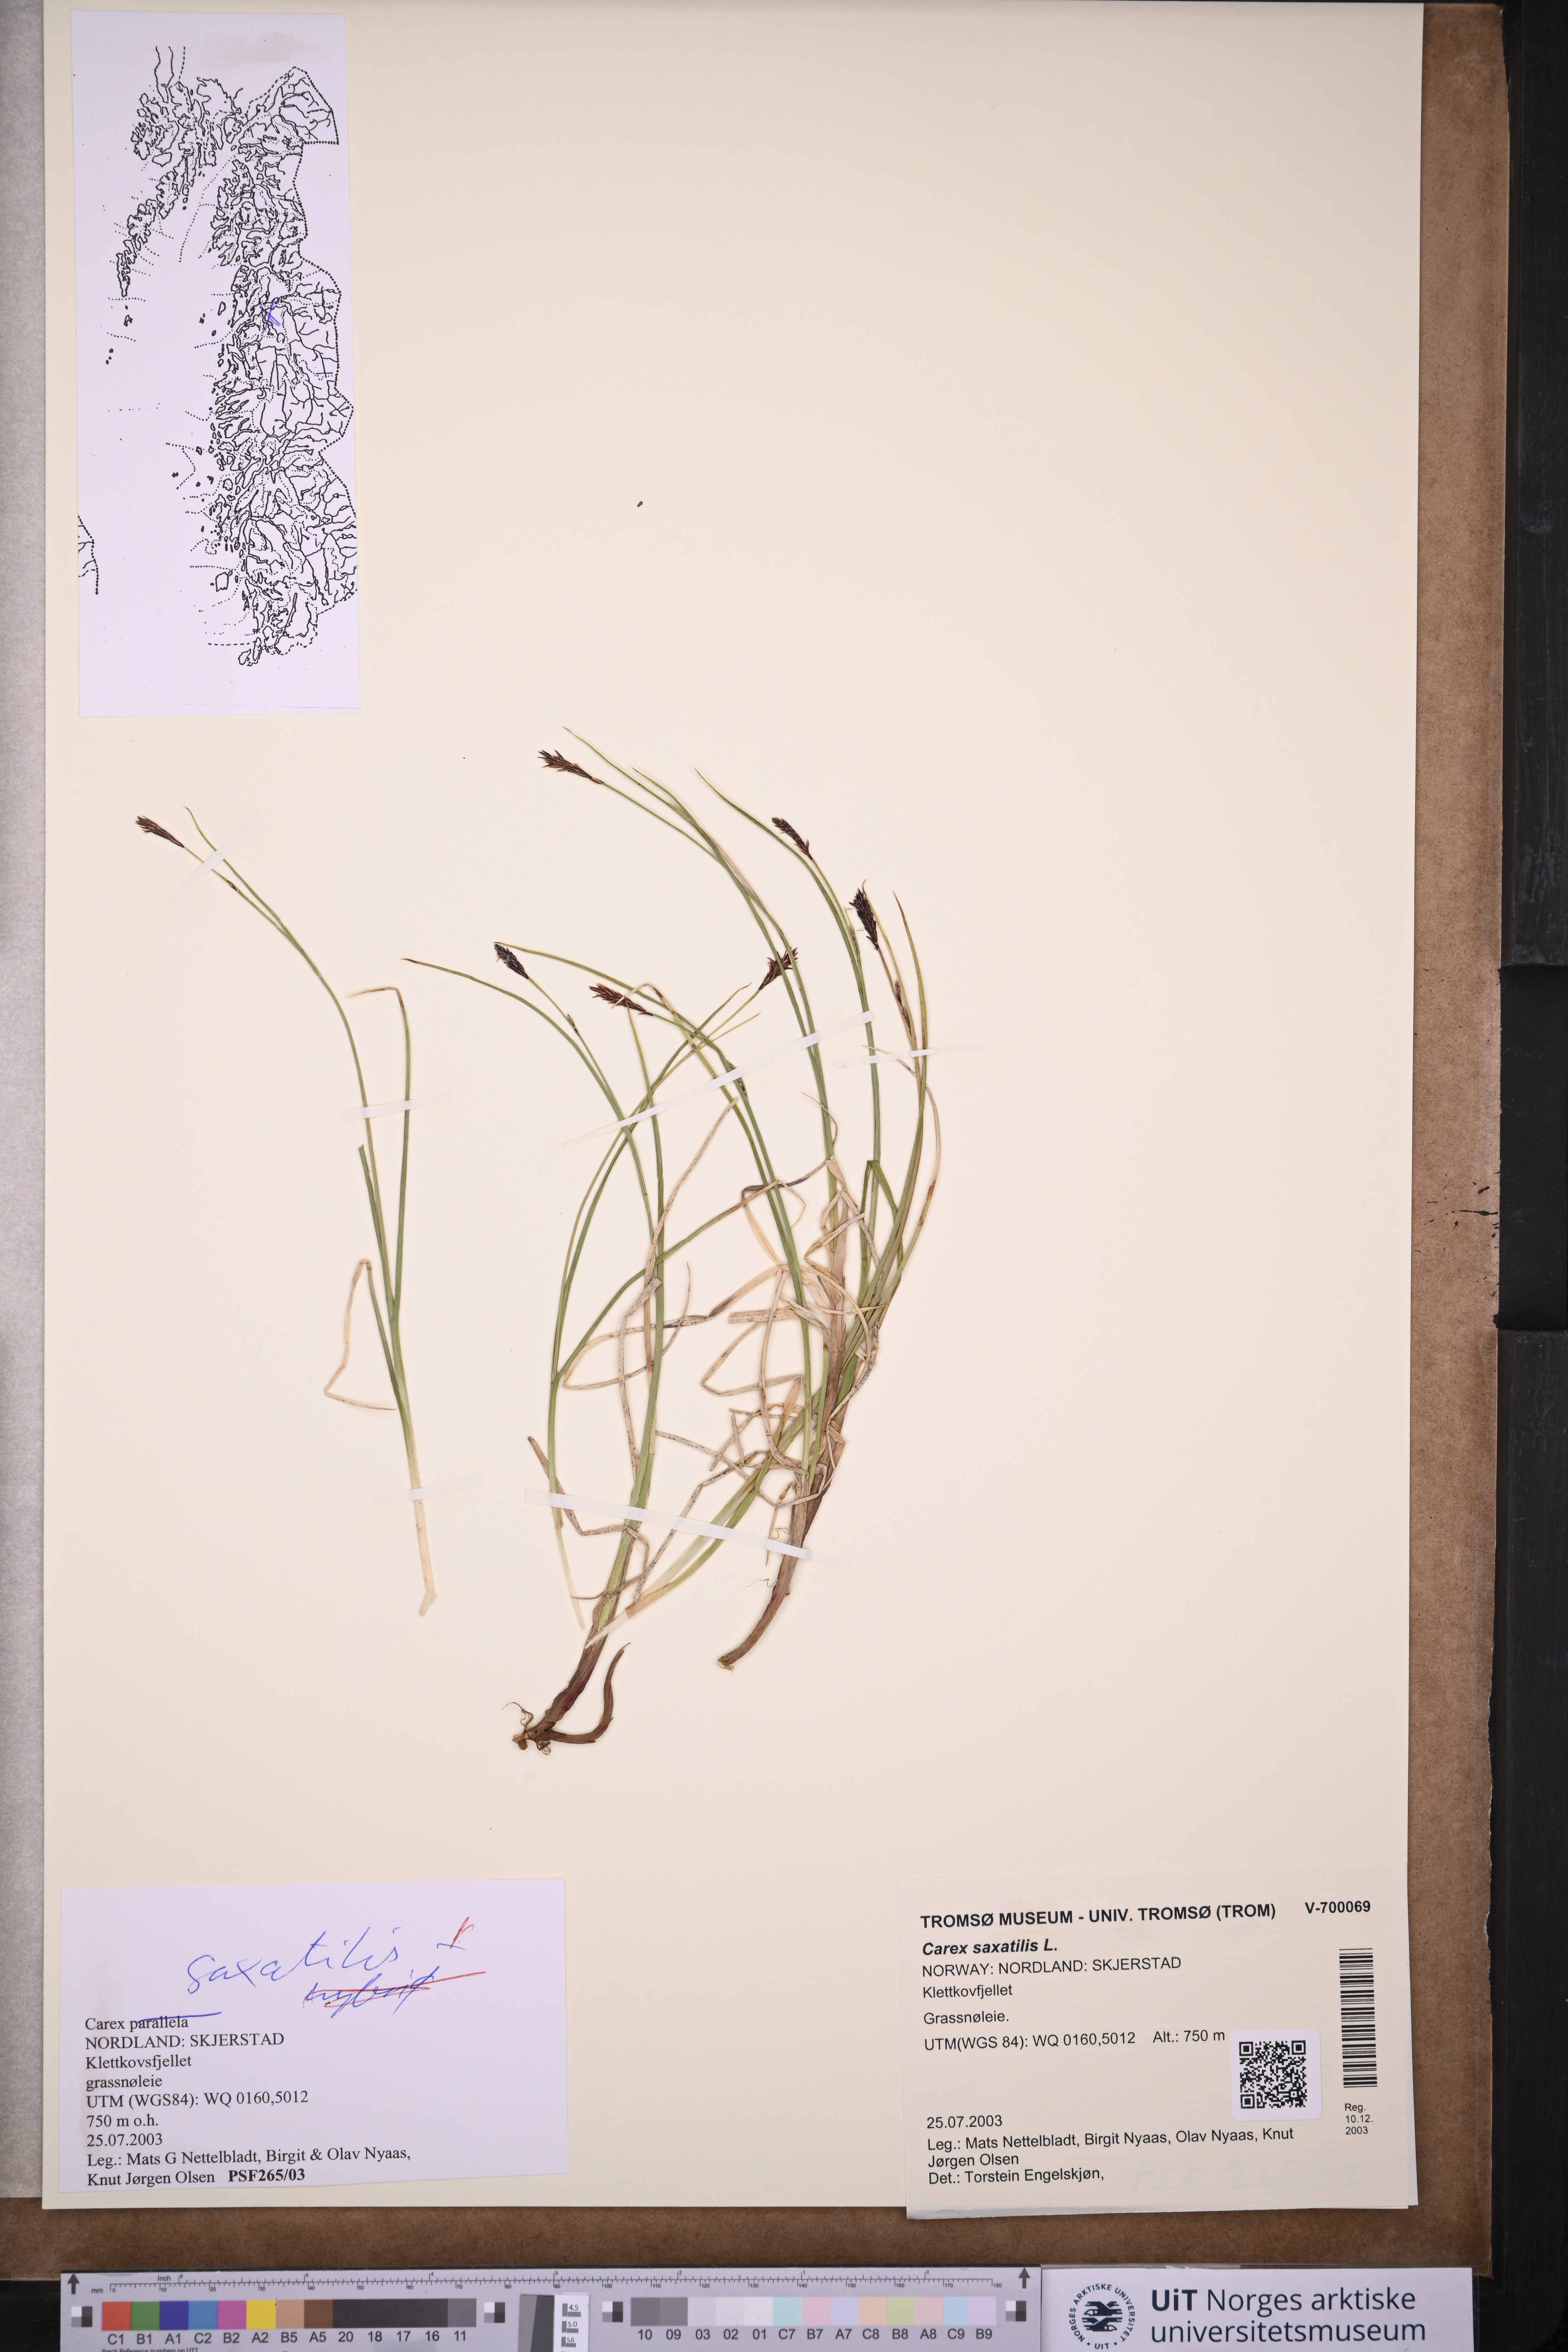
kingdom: Plantae
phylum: Tracheophyta
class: Liliopsida
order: Poales
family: Cyperaceae
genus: Carex
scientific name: Carex saxatilis
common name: Russet sedge
